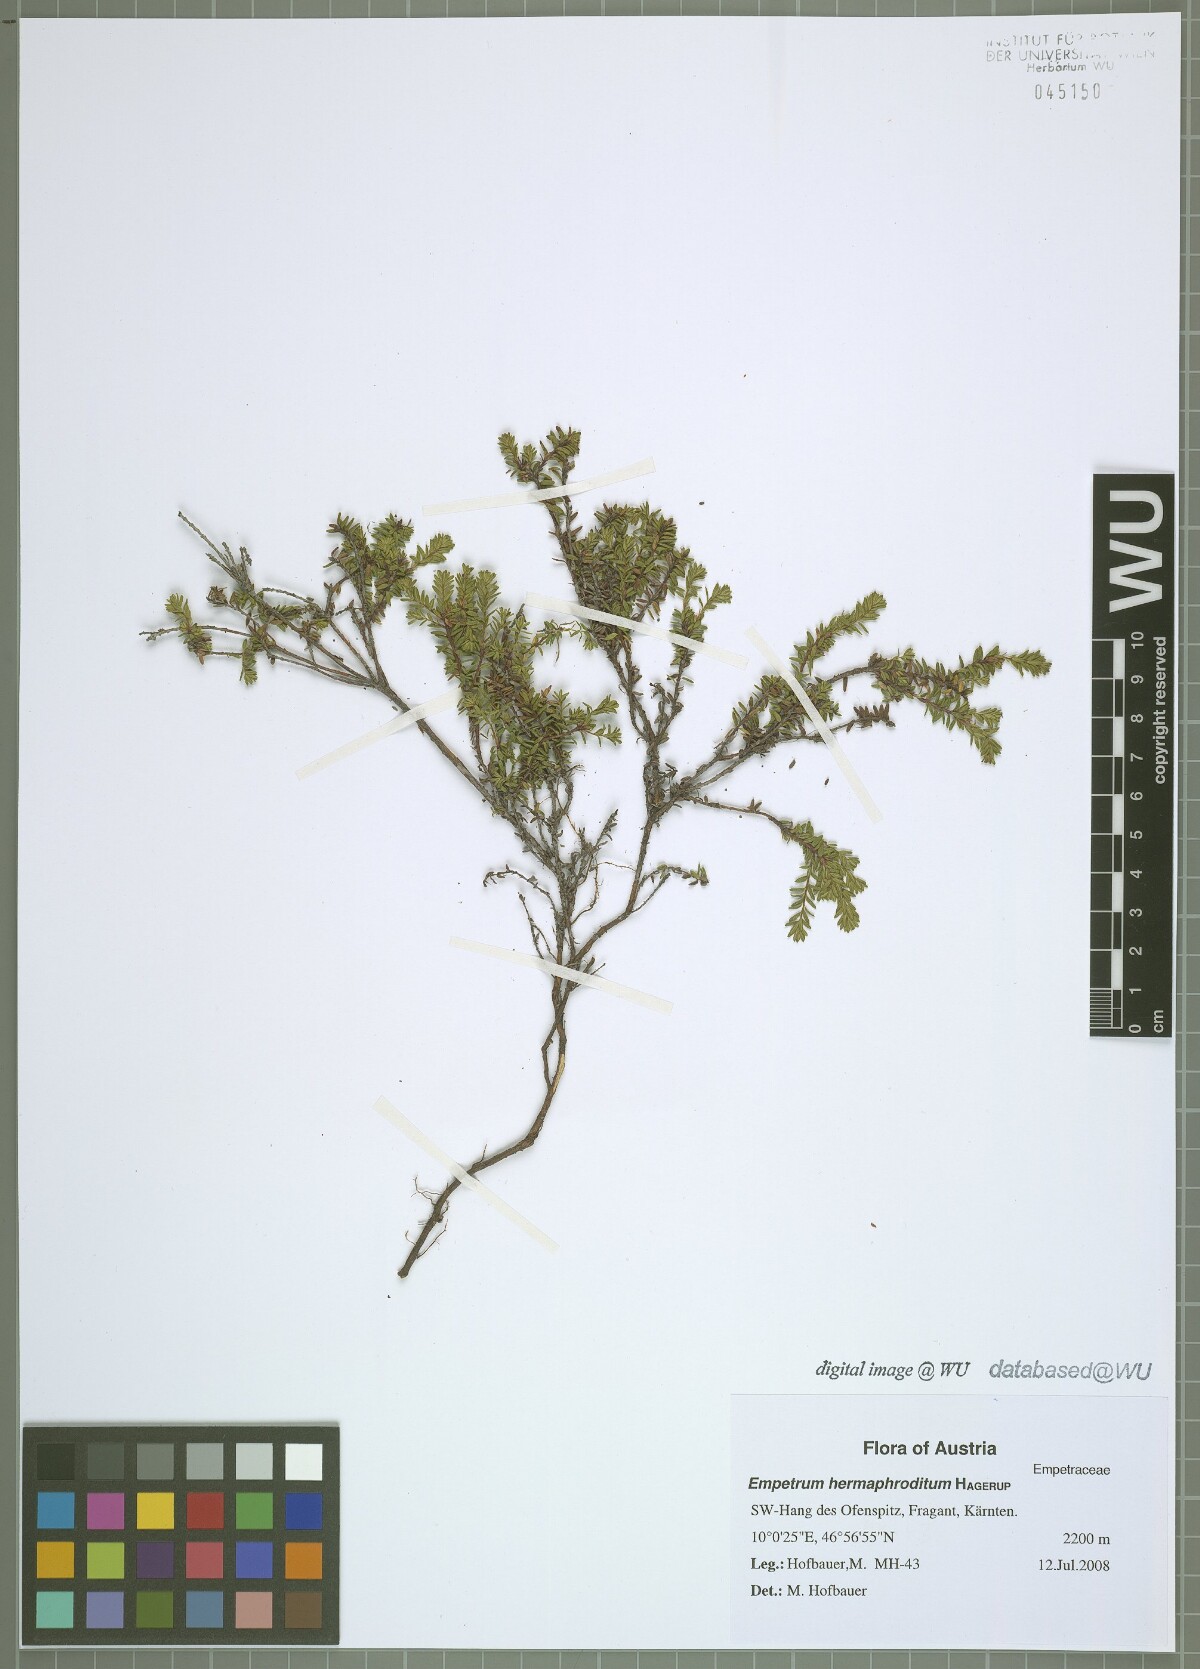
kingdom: Plantae
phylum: Tracheophyta
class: Magnoliopsida
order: Ericales
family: Ericaceae
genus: Empetrum
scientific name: Empetrum hermaphroditum
